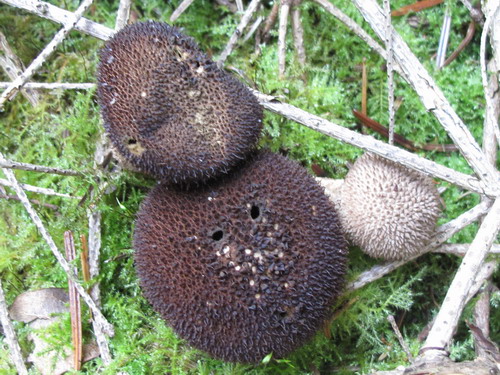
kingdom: Fungi
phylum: Basidiomycota
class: Agaricomycetes
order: Agaricales
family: Lycoperdaceae
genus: Lycoperdon
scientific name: Lycoperdon nigrescens
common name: sortagtig støvbold
